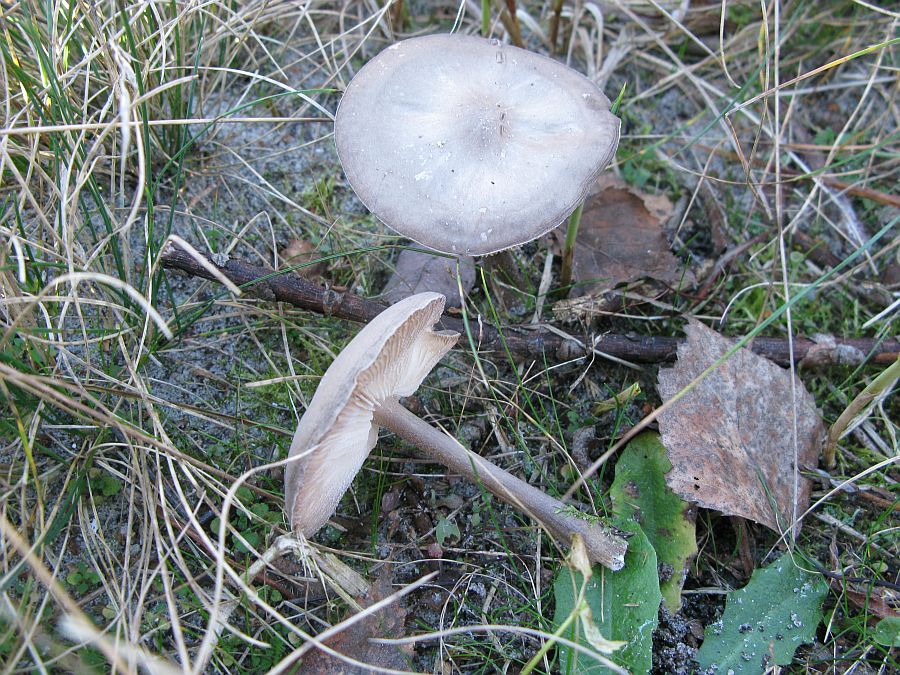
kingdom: Fungi
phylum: Basidiomycota
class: Agaricomycetes
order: Agaricales
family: Tricholomataceae
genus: Melanoleuca
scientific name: Melanoleuca polioleuca
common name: almindelig munkehat
